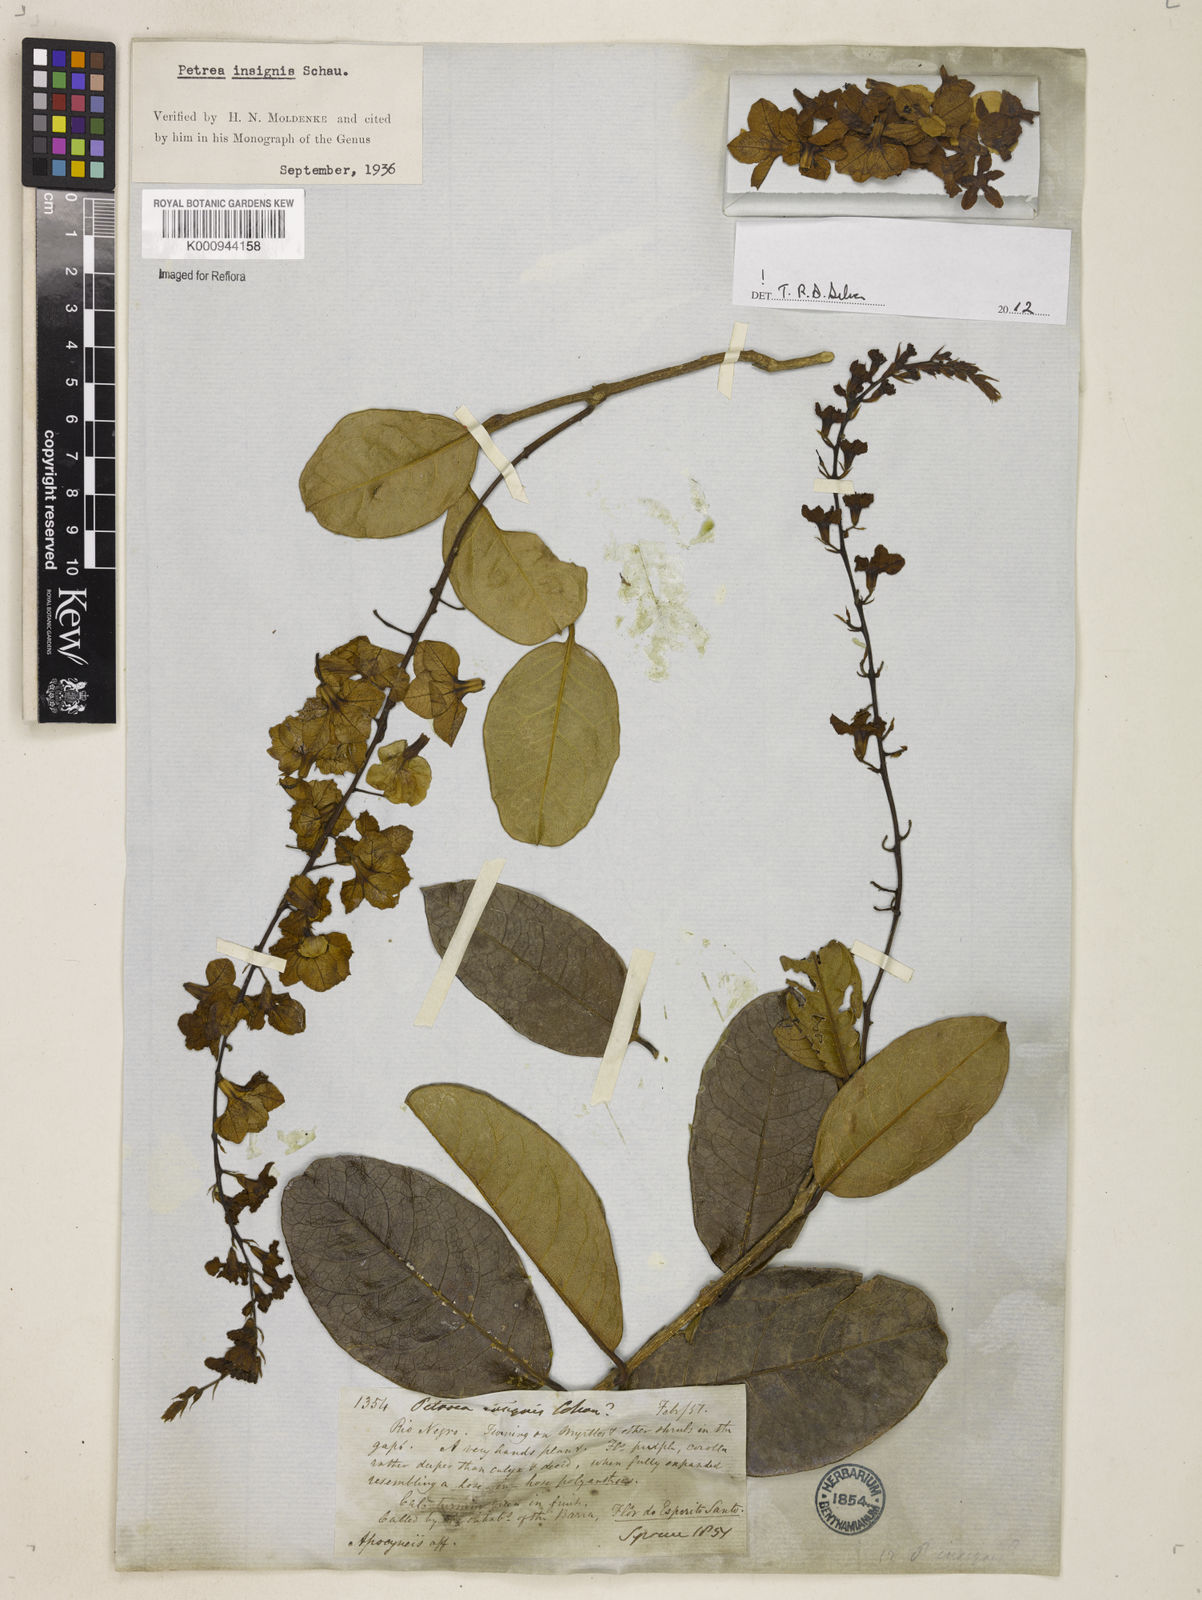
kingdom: Plantae
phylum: Tracheophyta
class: Magnoliopsida
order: Lamiales
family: Verbenaceae
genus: Petrea
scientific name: Petrea insignis
